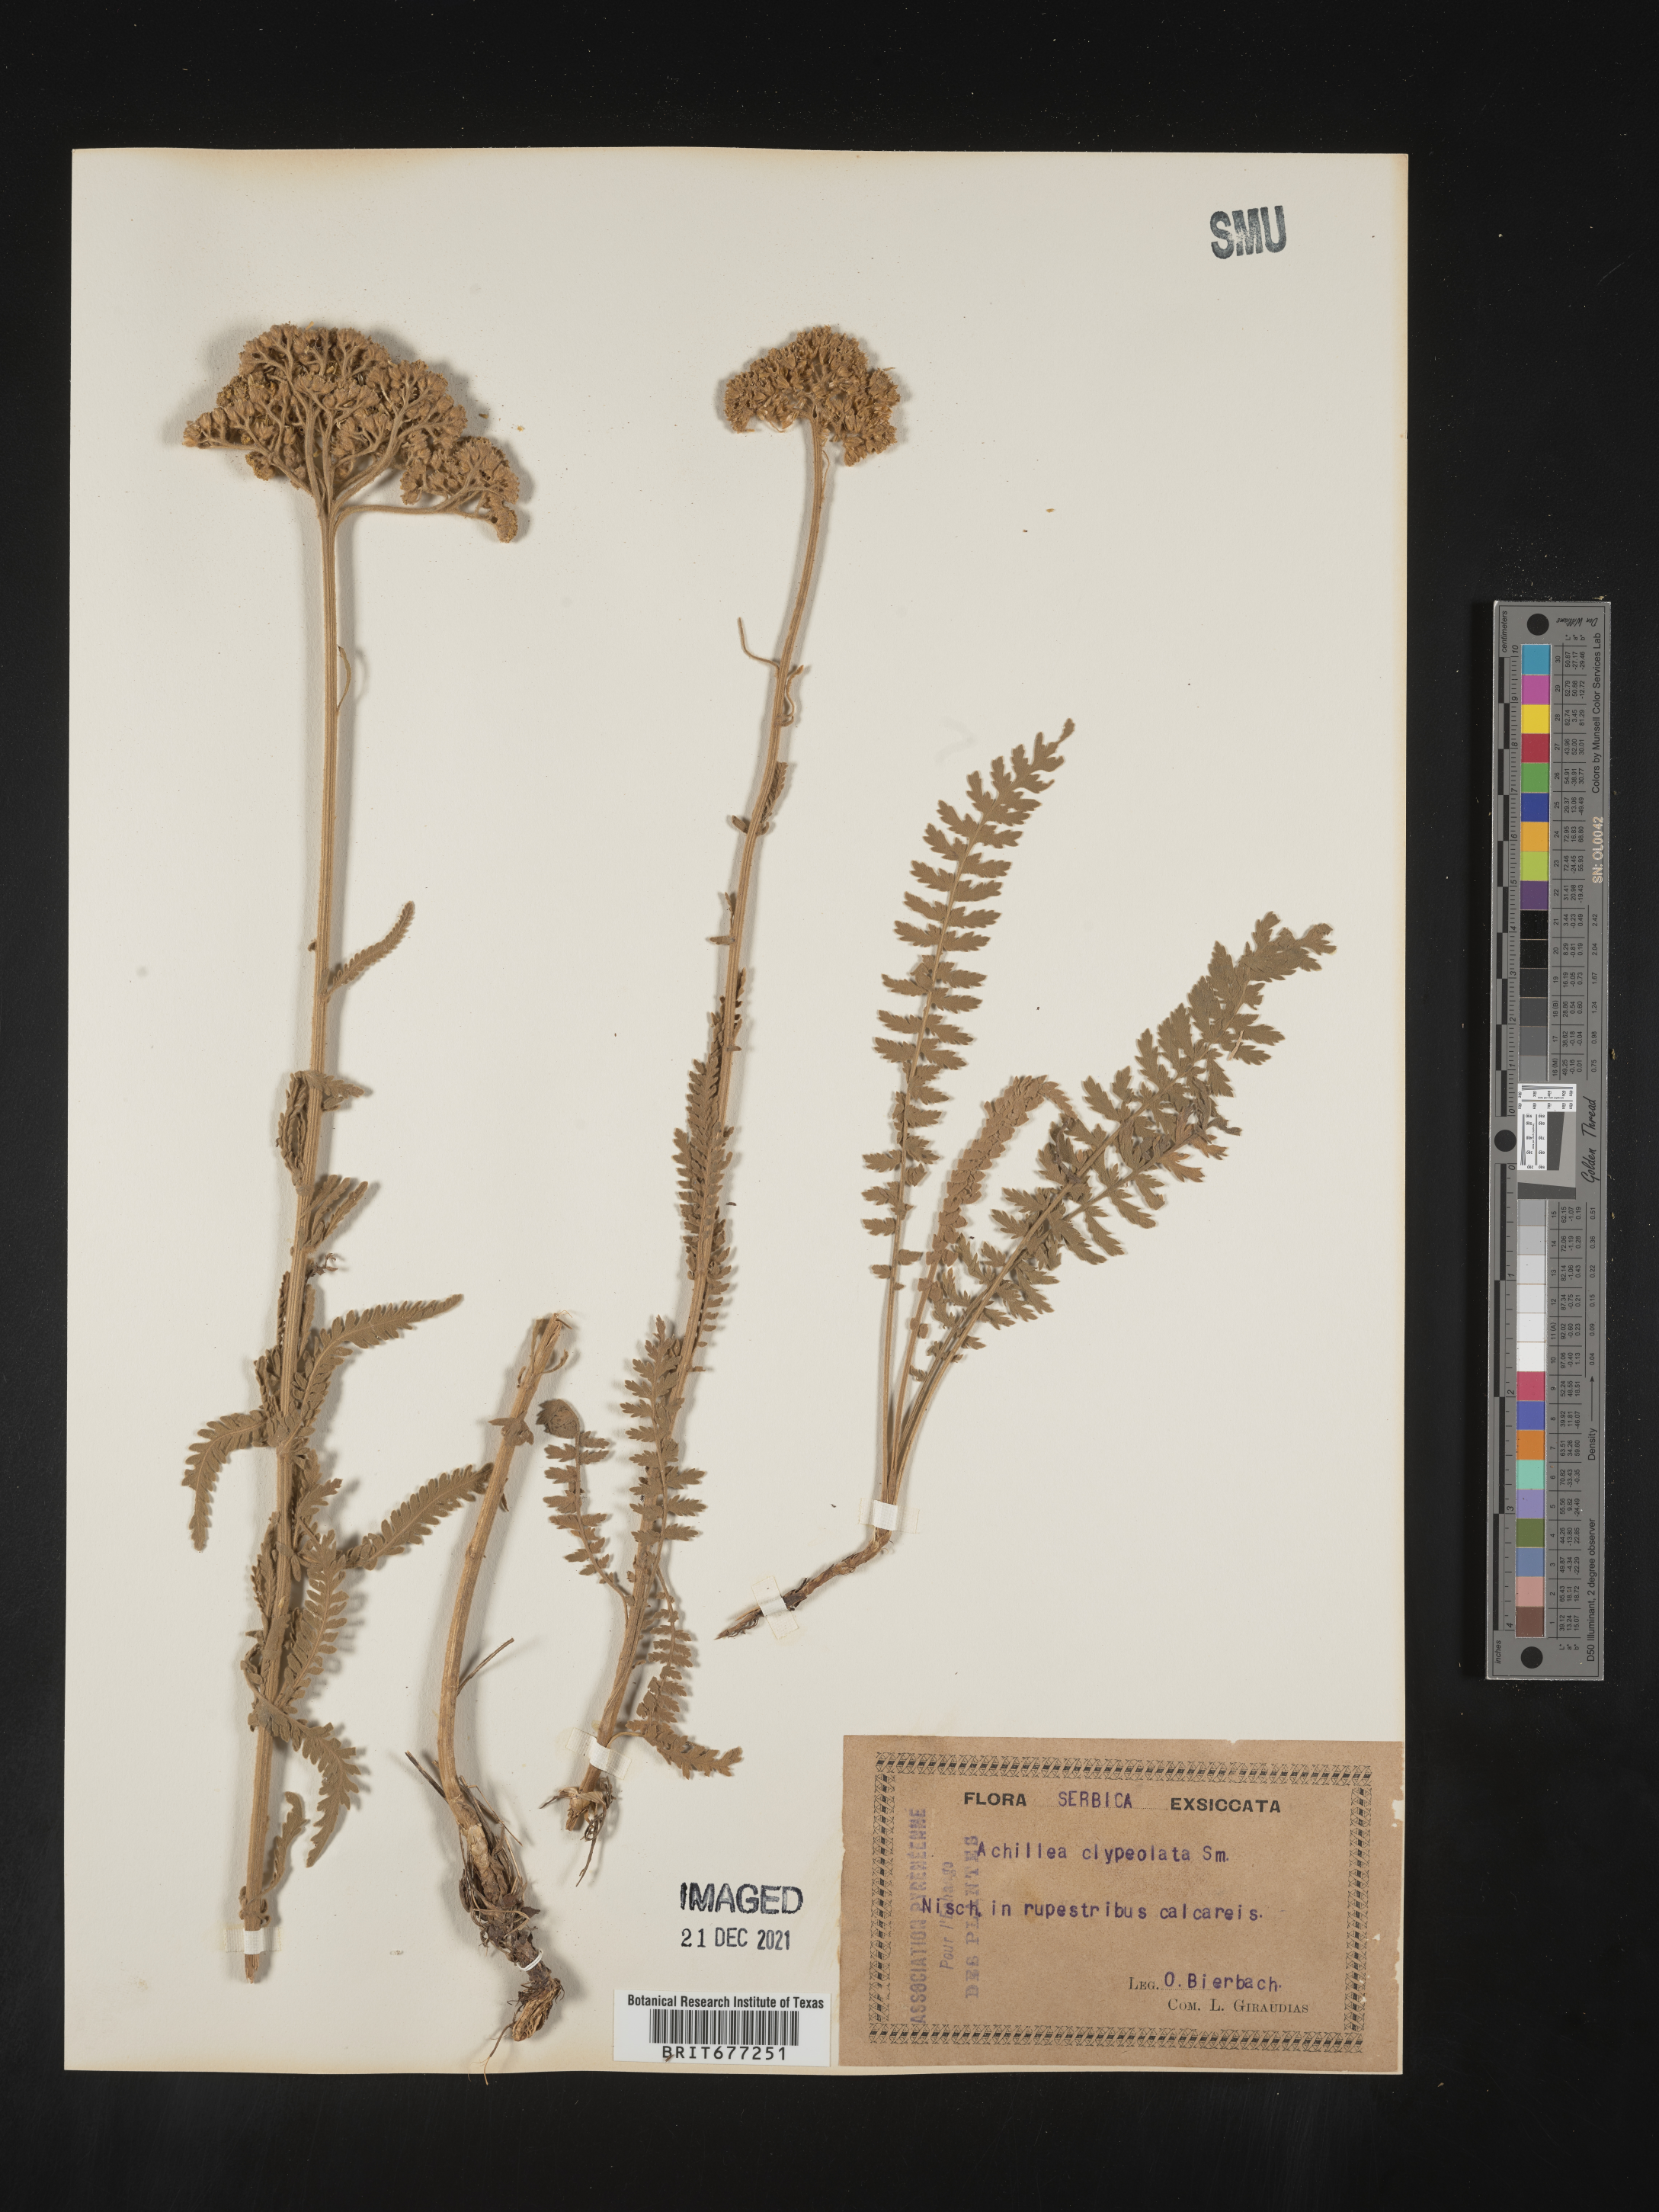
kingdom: Plantae
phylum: Tracheophyta
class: Magnoliopsida
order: Asterales
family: Asteraceae
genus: Achillea
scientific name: Achillea
